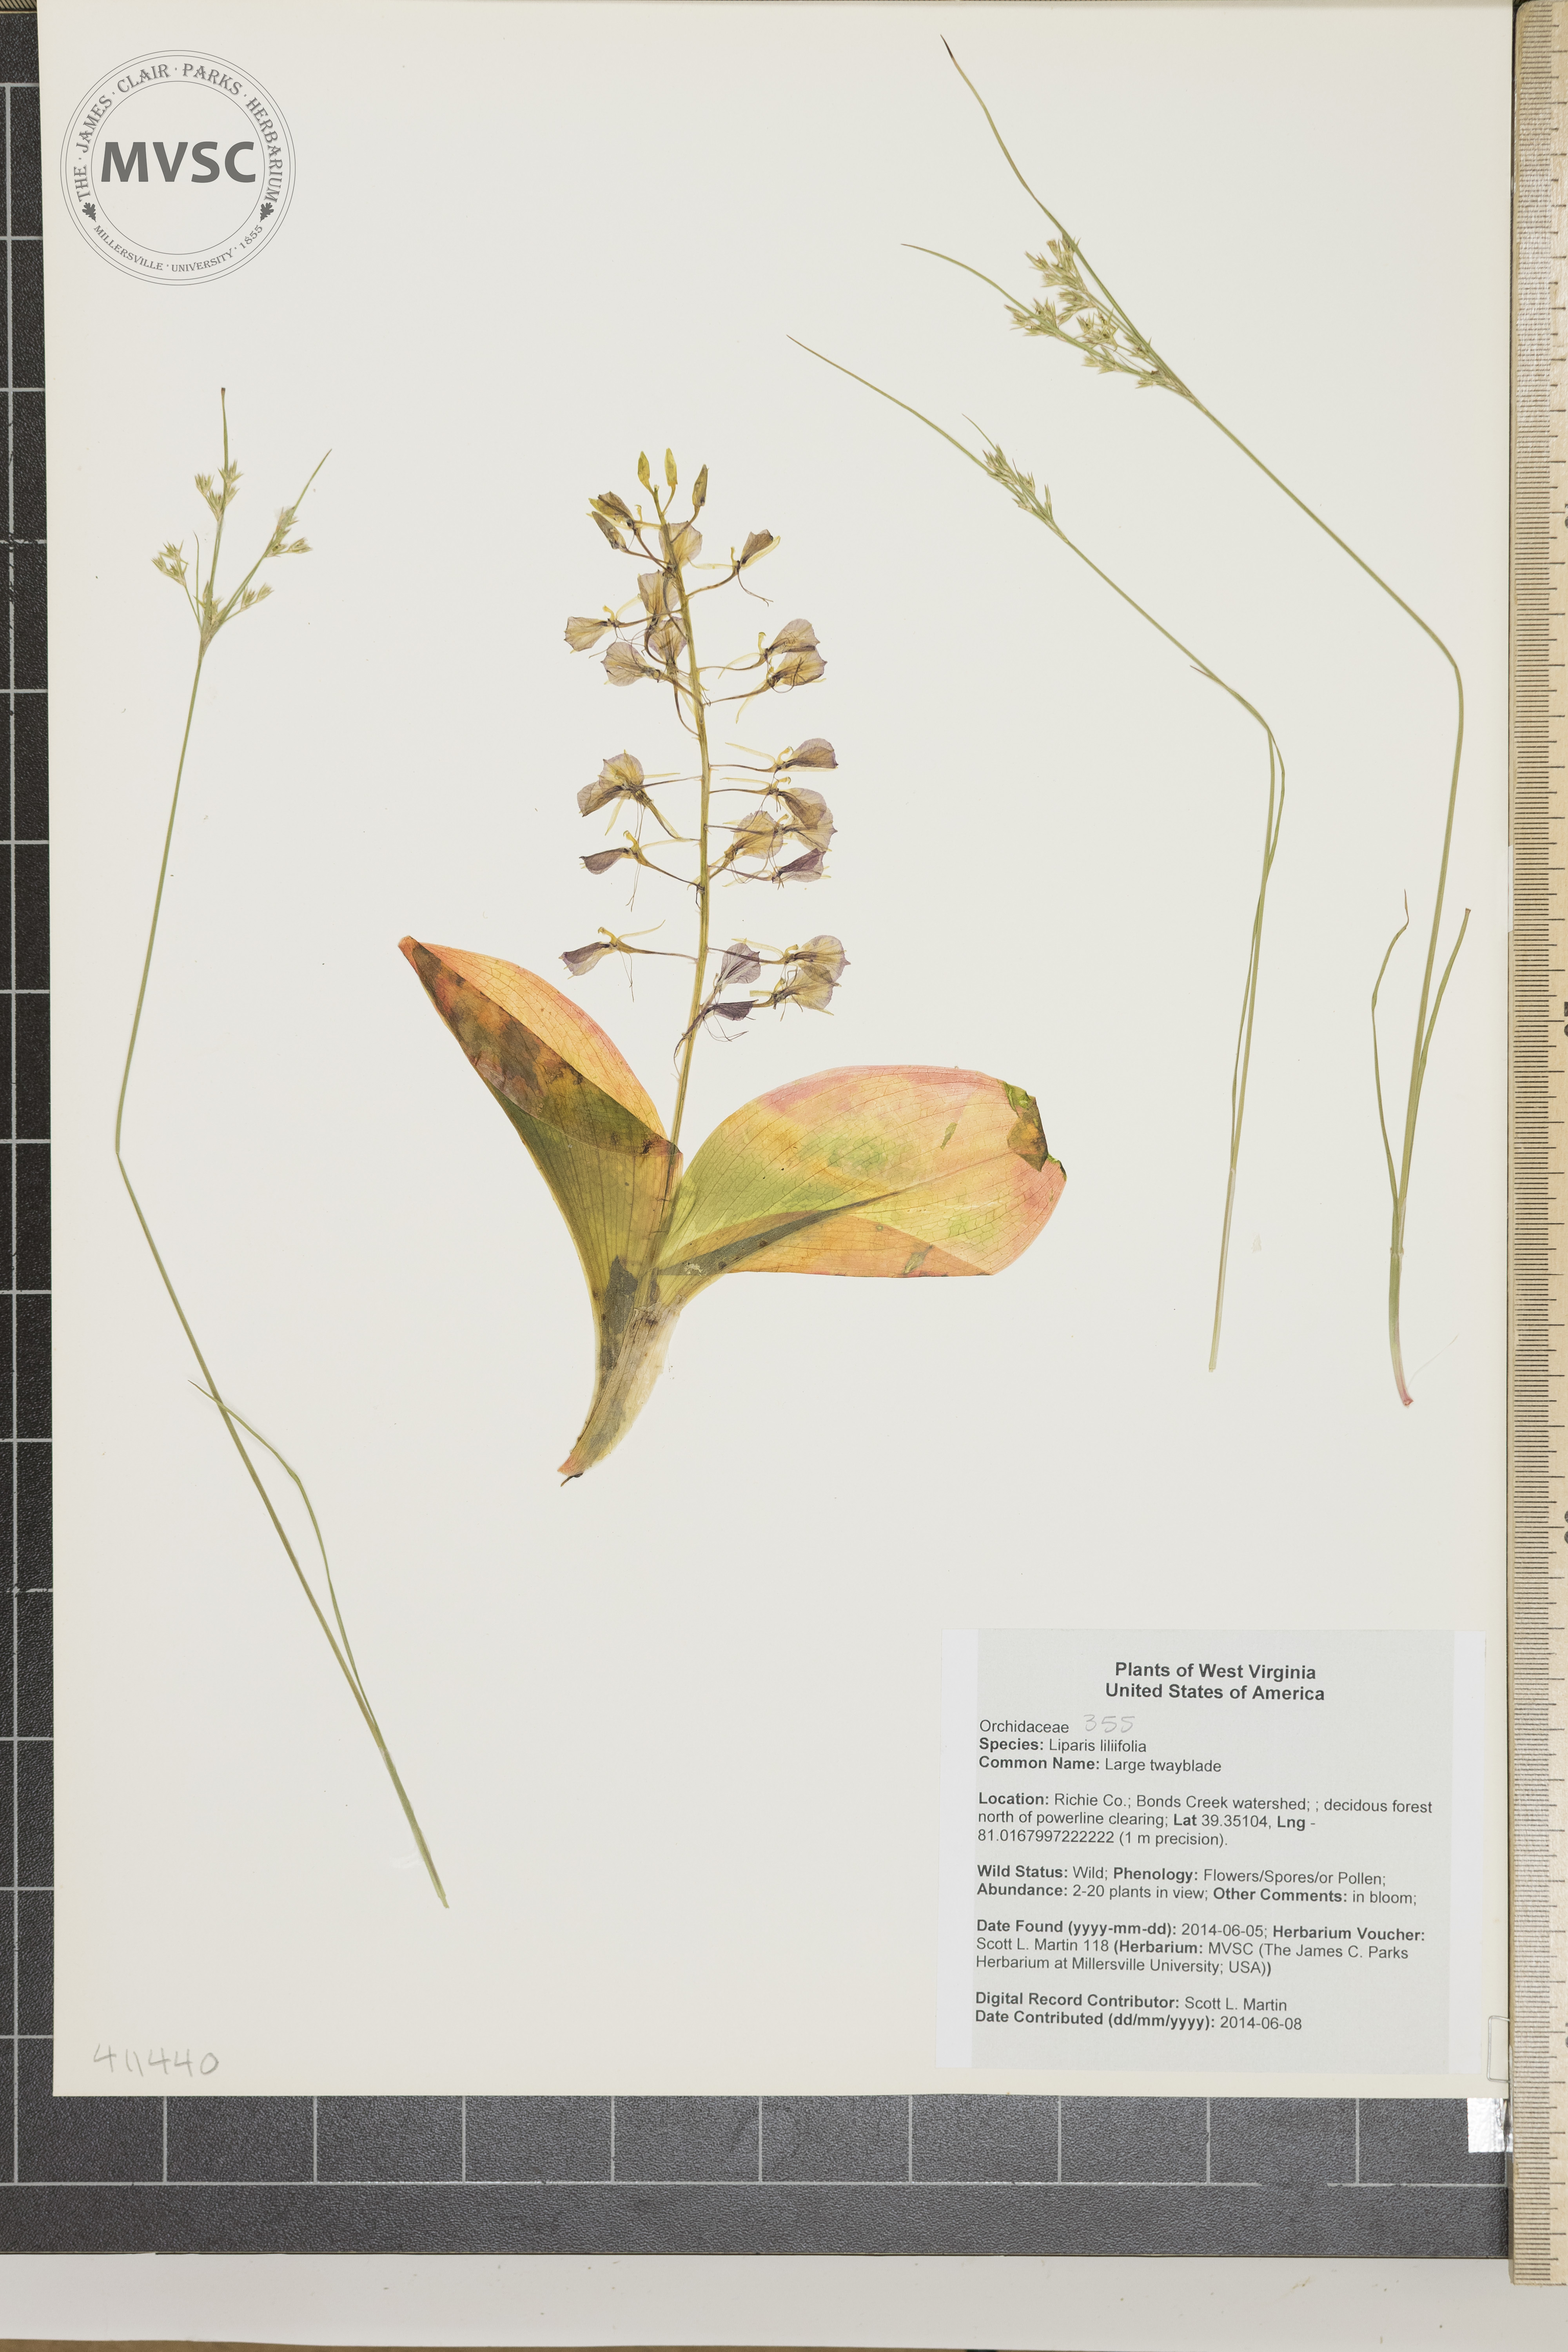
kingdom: Plantae
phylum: Tracheophyta
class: Liliopsida
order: Asparagales
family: Orchidaceae
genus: Liparis
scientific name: Liparis liliifolia
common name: Large twayblade
